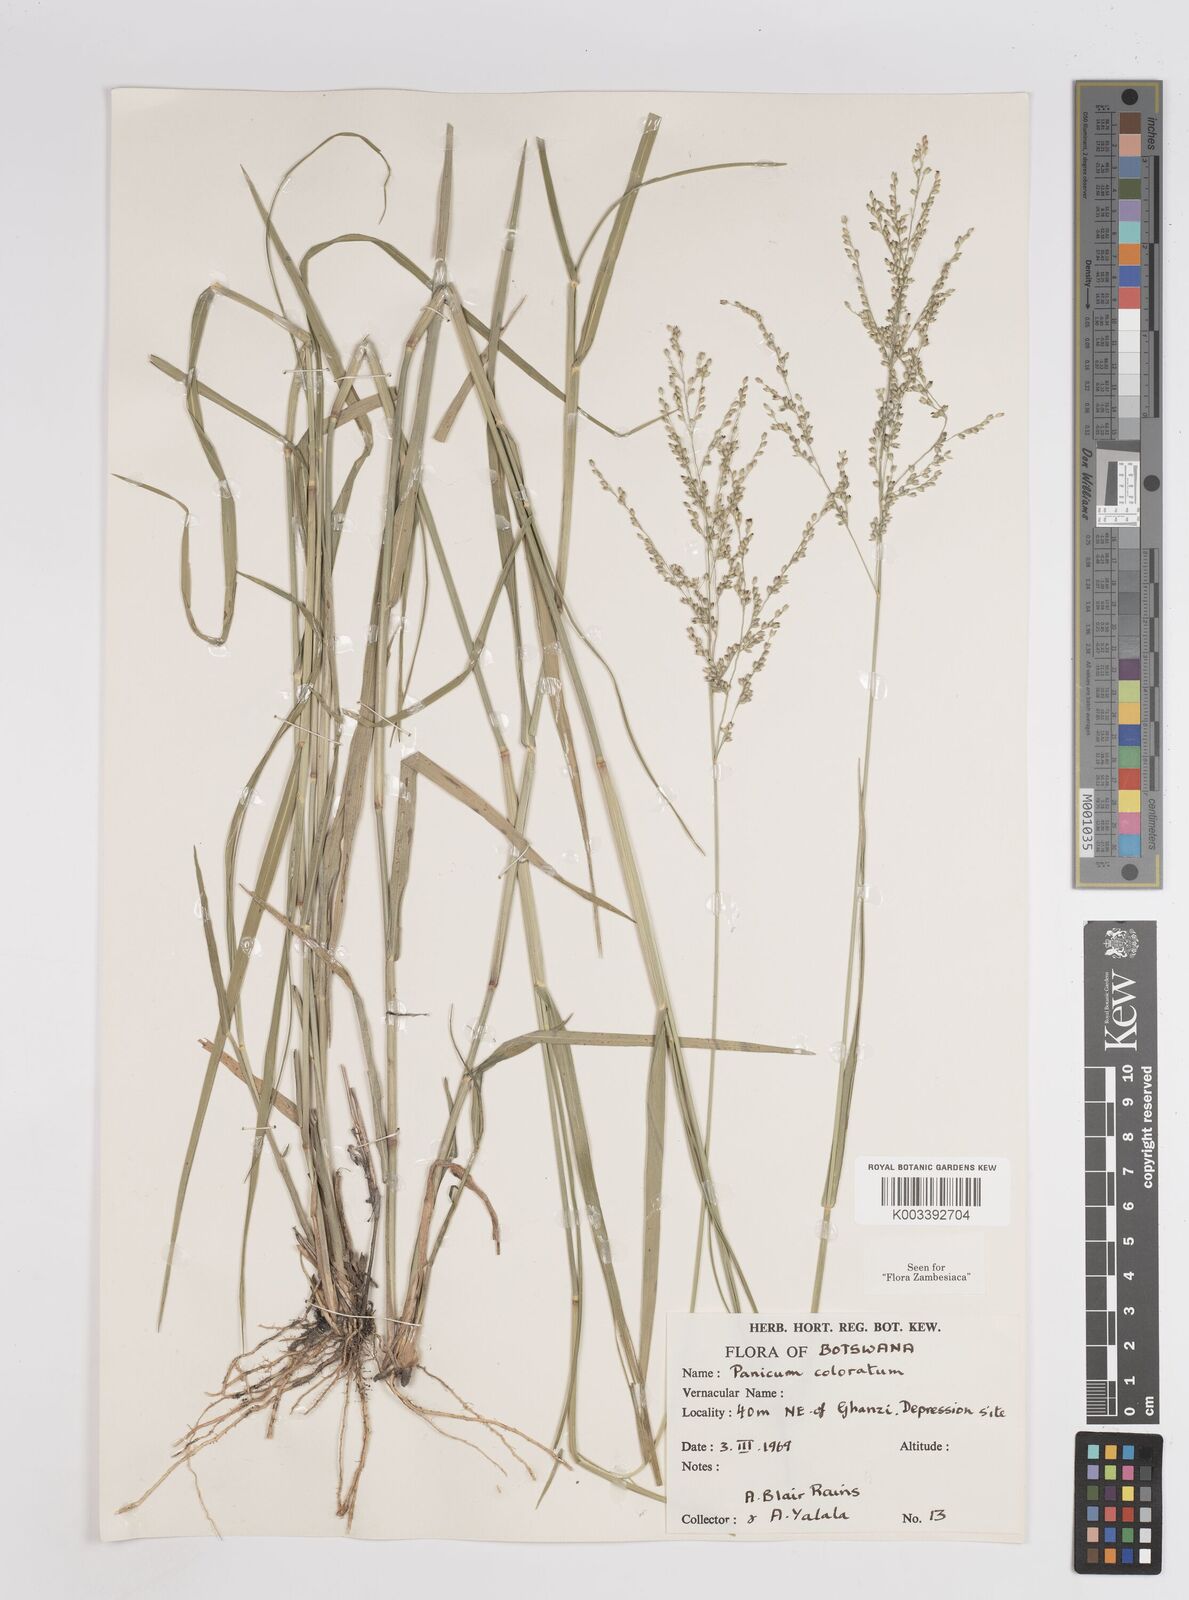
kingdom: Plantae
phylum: Tracheophyta
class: Liliopsida
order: Poales
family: Poaceae
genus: Panicum
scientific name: Panicum coloratum
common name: Kleingrass
